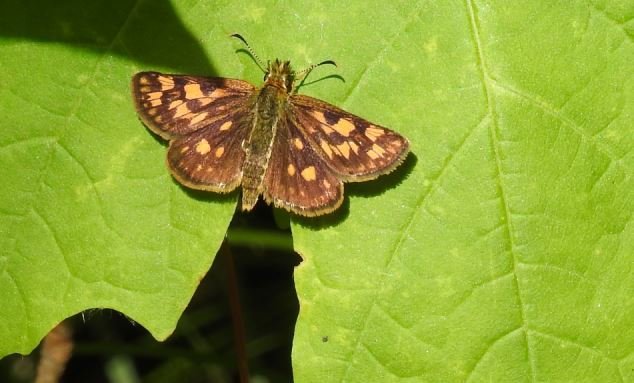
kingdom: Animalia
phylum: Arthropoda
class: Insecta
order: Lepidoptera
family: Hesperiidae
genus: Carterocephalus
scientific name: Carterocephalus palaemon
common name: Chequered Skipper
